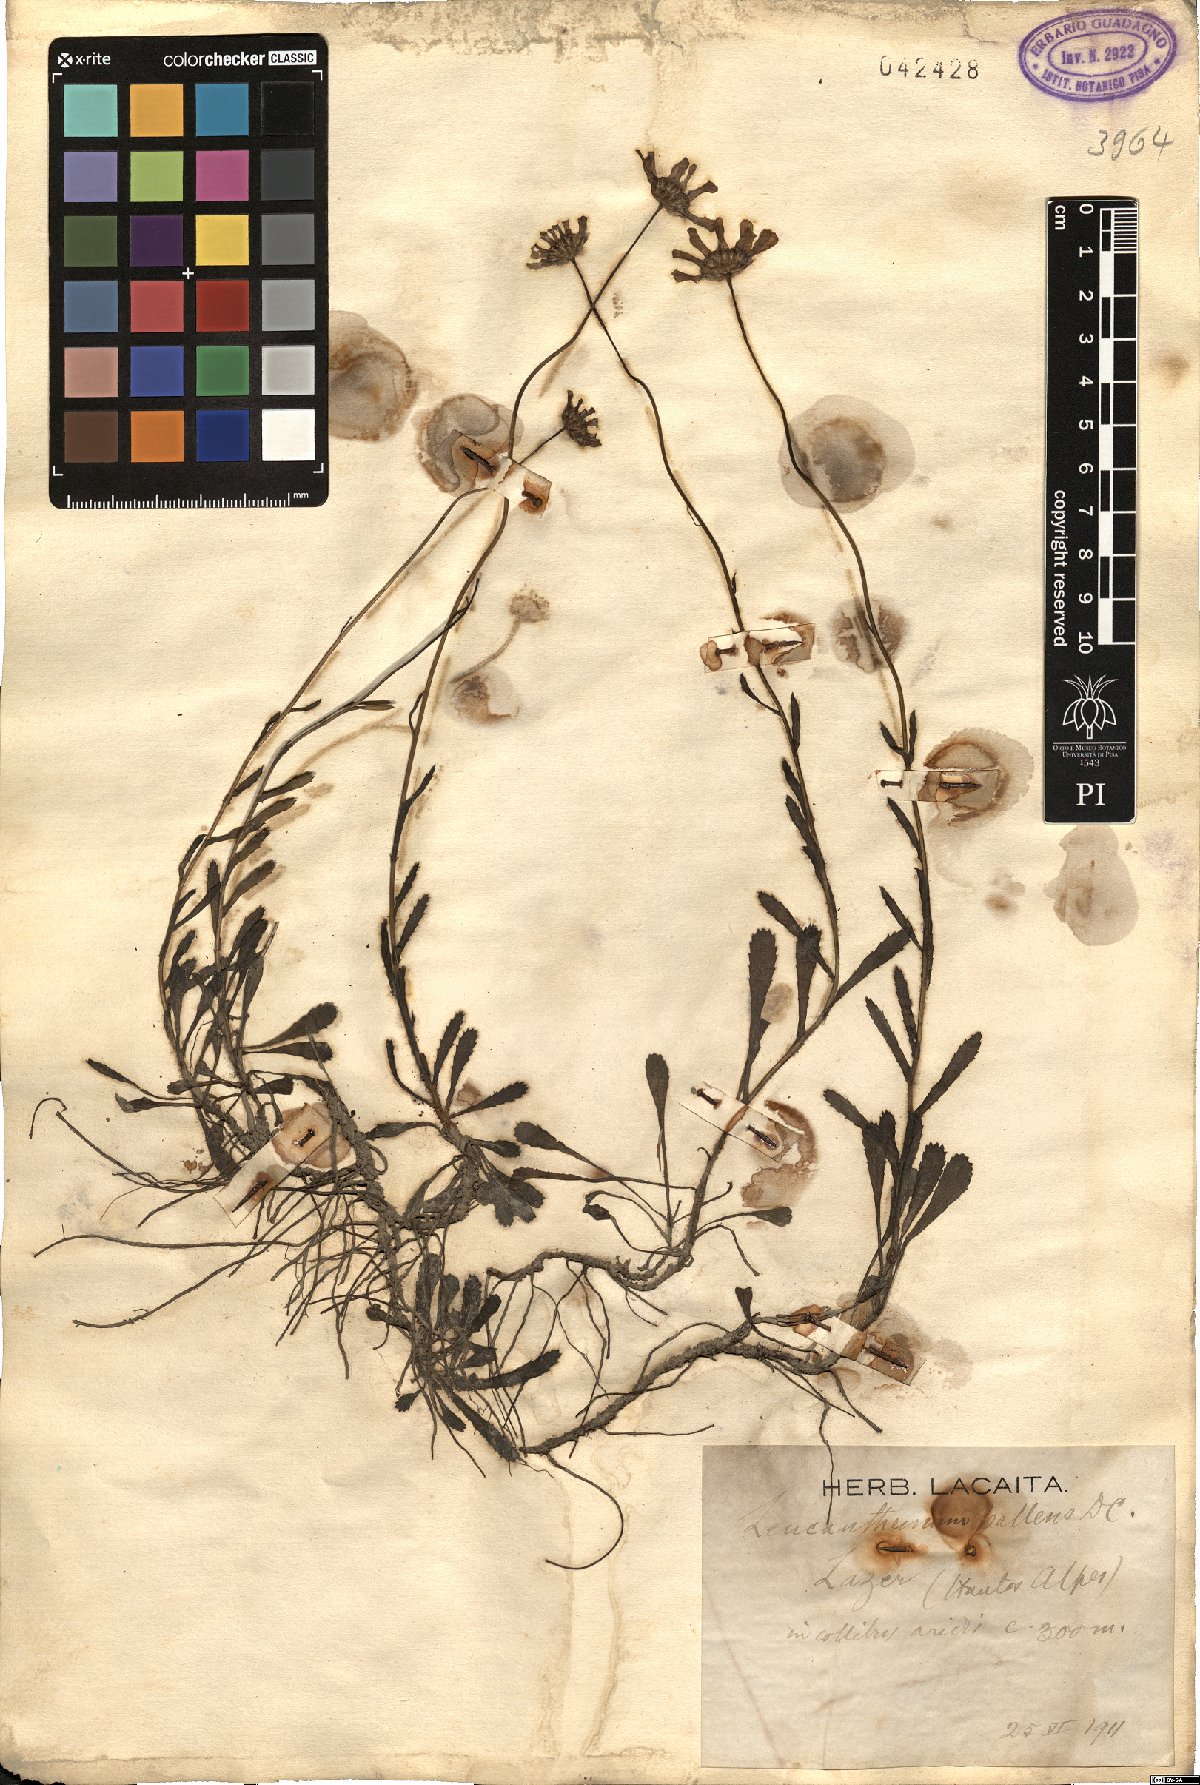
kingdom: Plantae
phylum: Tracheophyta
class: Magnoliopsida
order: Asterales
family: Asteraceae
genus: Leucanthemum
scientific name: Leucanthemum pallens
